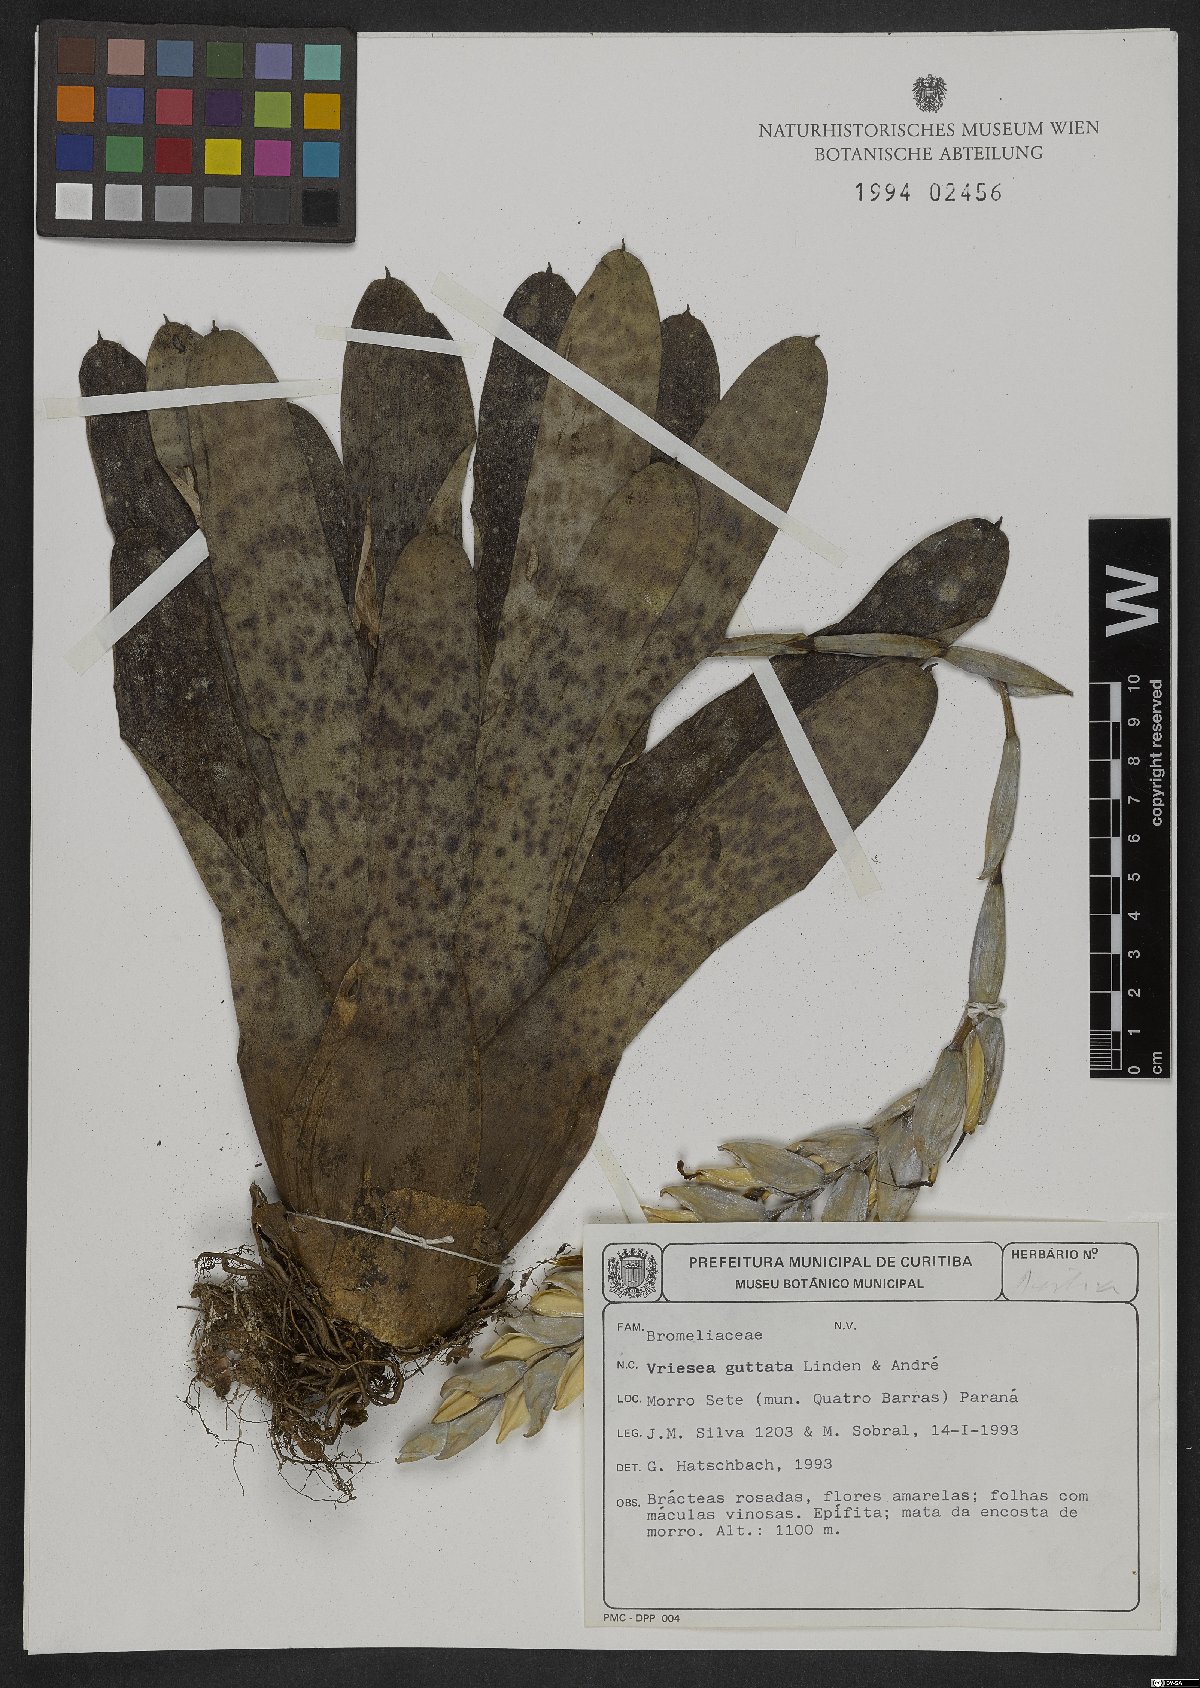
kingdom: Plantae
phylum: Tracheophyta
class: Liliopsida
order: Poales
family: Bromeliaceae
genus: Vriesea
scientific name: Vriesea guttata
